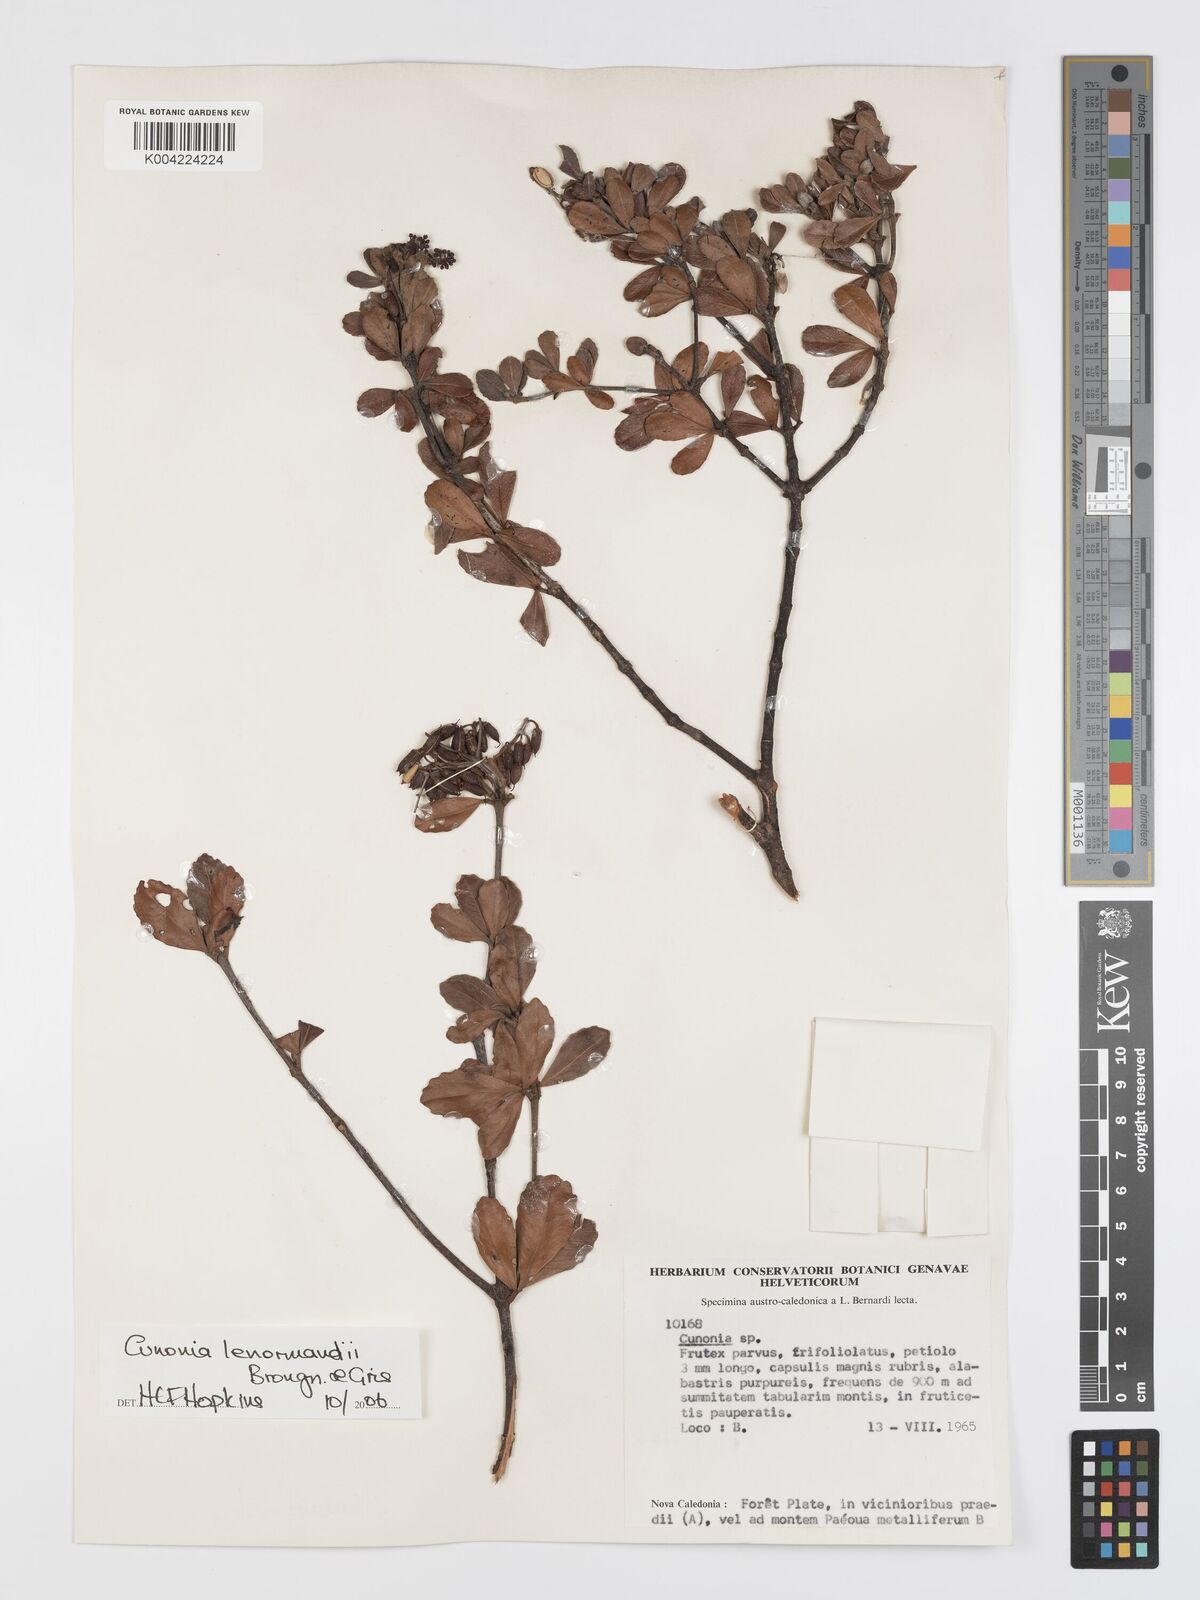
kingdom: Plantae
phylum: Tracheophyta
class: Magnoliopsida
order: Oxalidales
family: Cunoniaceae
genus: Cunonia
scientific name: Cunonia lenormandii
